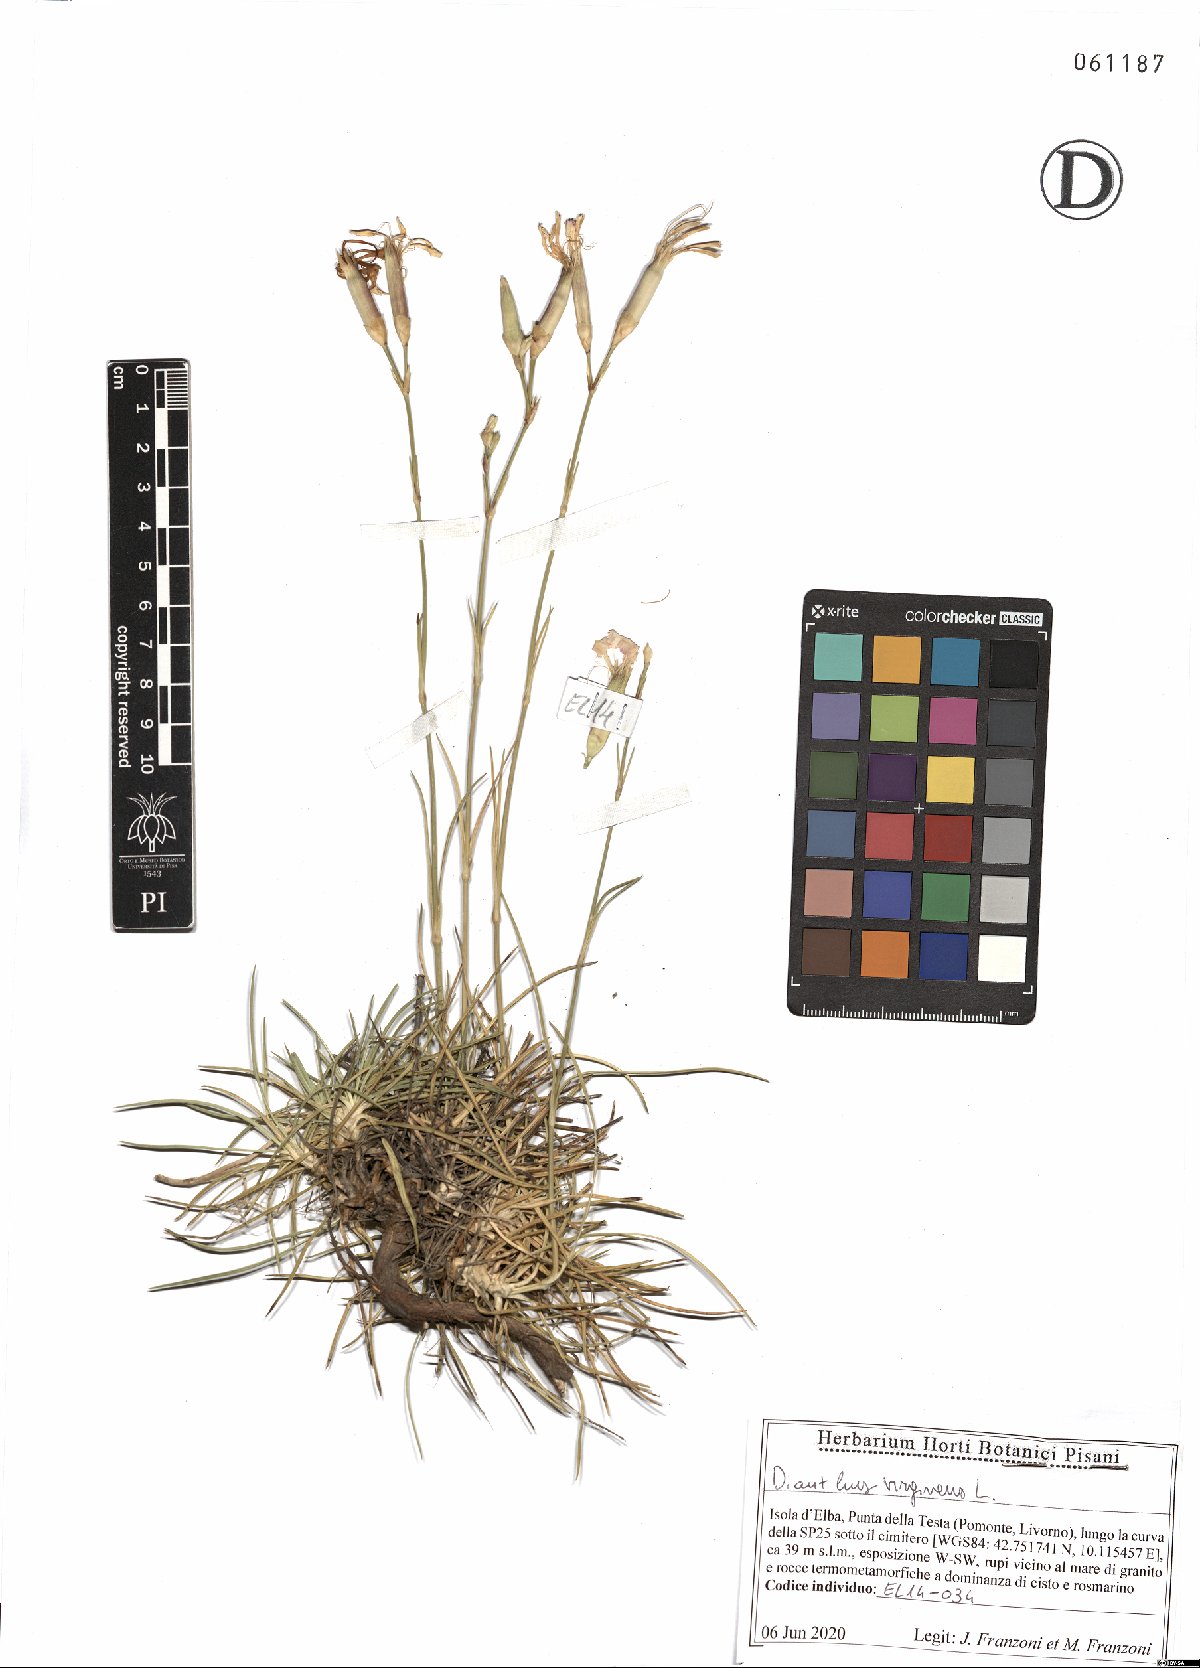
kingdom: Plantae
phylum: Tracheophyta
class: Magnoliopsida
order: Caryophyllales
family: Caryophyllaceae
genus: Dianthus
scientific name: Dianthus virgineus
